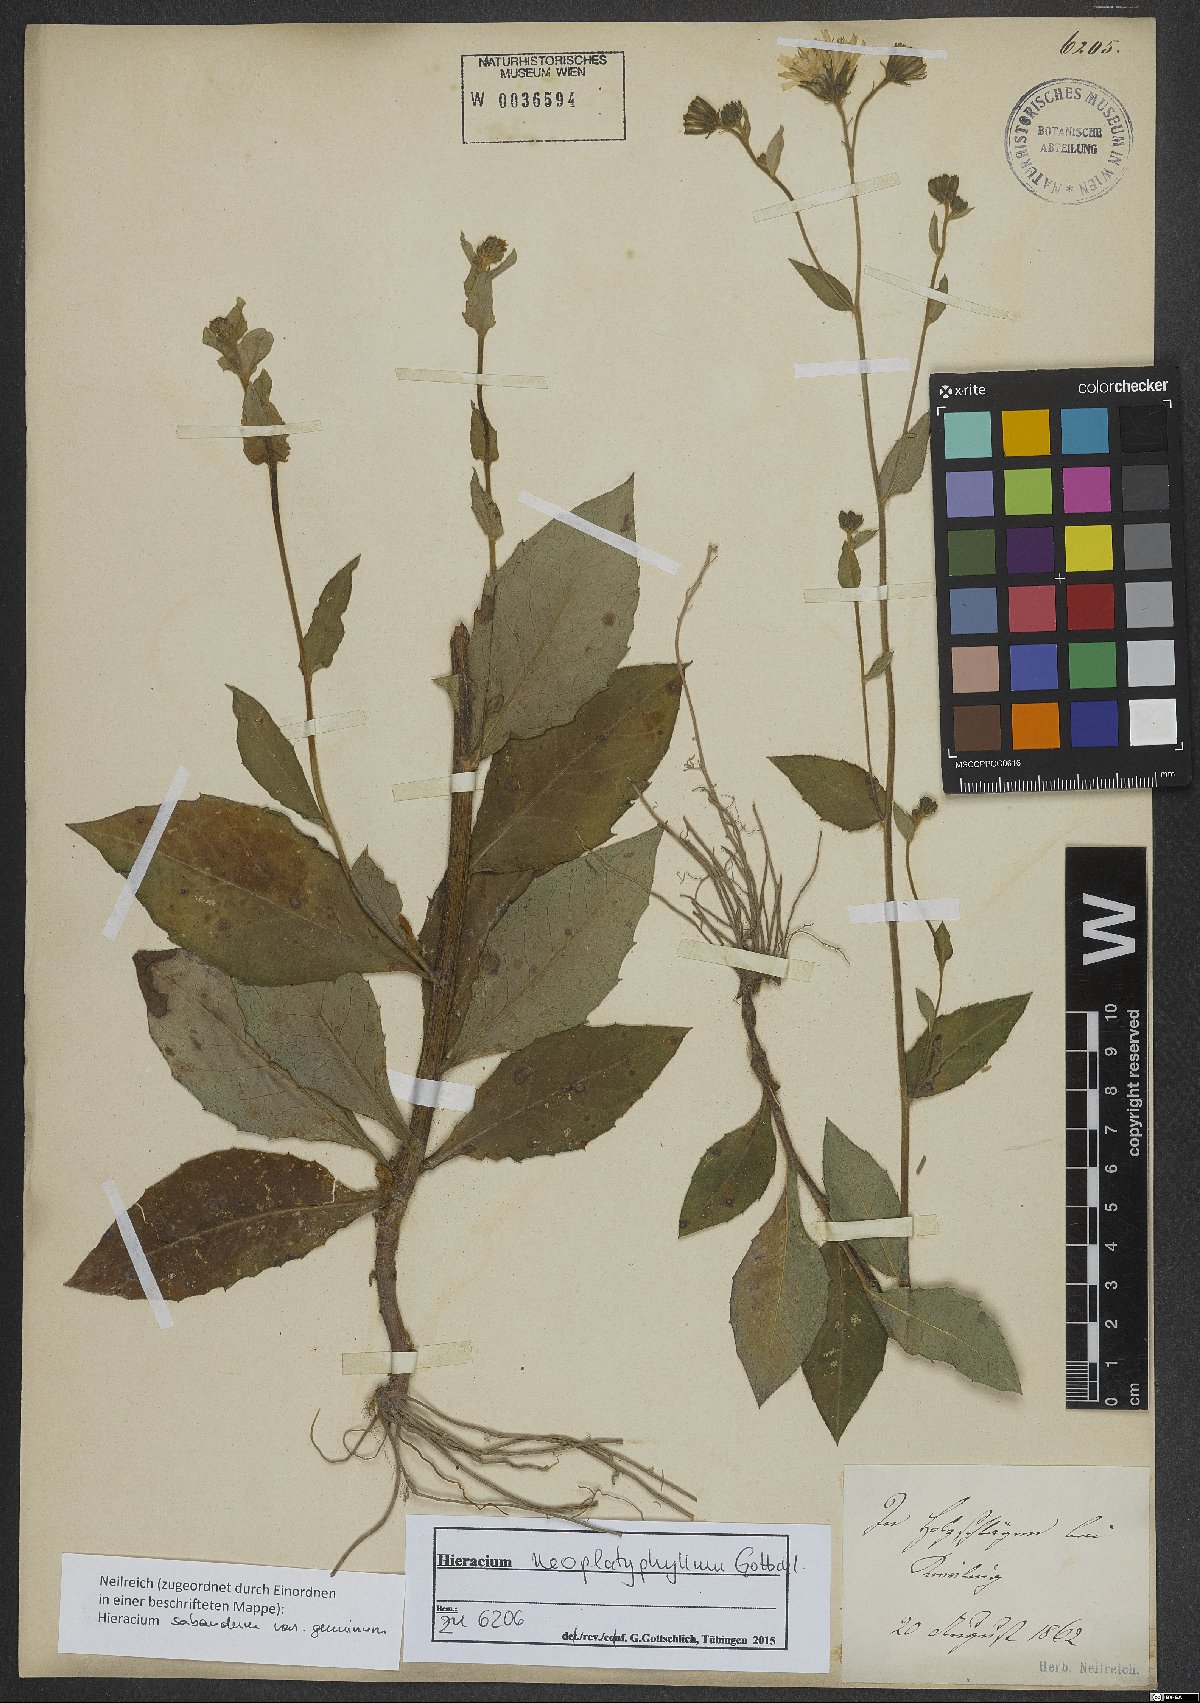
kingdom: Plantae
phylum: Tracheophyta
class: Magnoliopsida
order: Asterales
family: Asteraceae
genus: Hieracium
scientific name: Hieracium neoplatyphyllum
